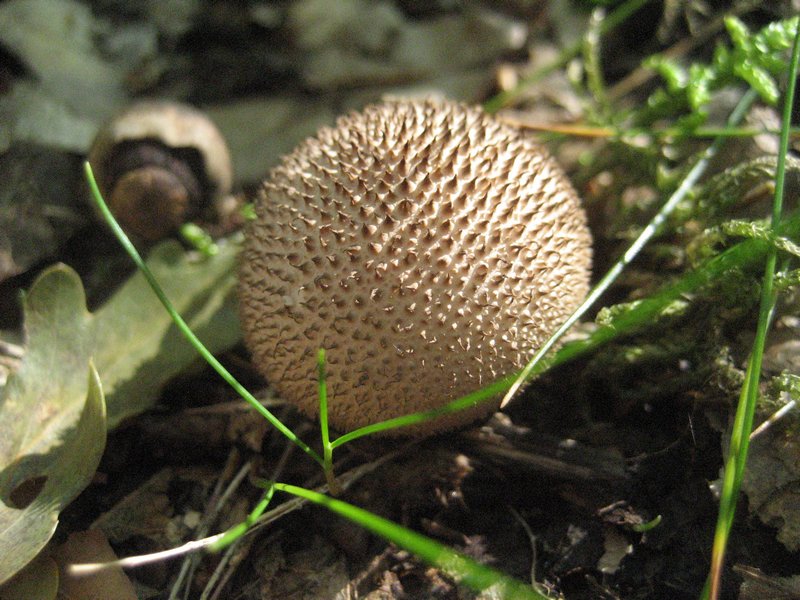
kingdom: Fungi
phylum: Basidiomycota
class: Agaricomycetes
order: Agaricales
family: Lycoperdaceae
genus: Lycoperdon
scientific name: Lycoperdon nigrescens
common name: sortagtig støvbold
